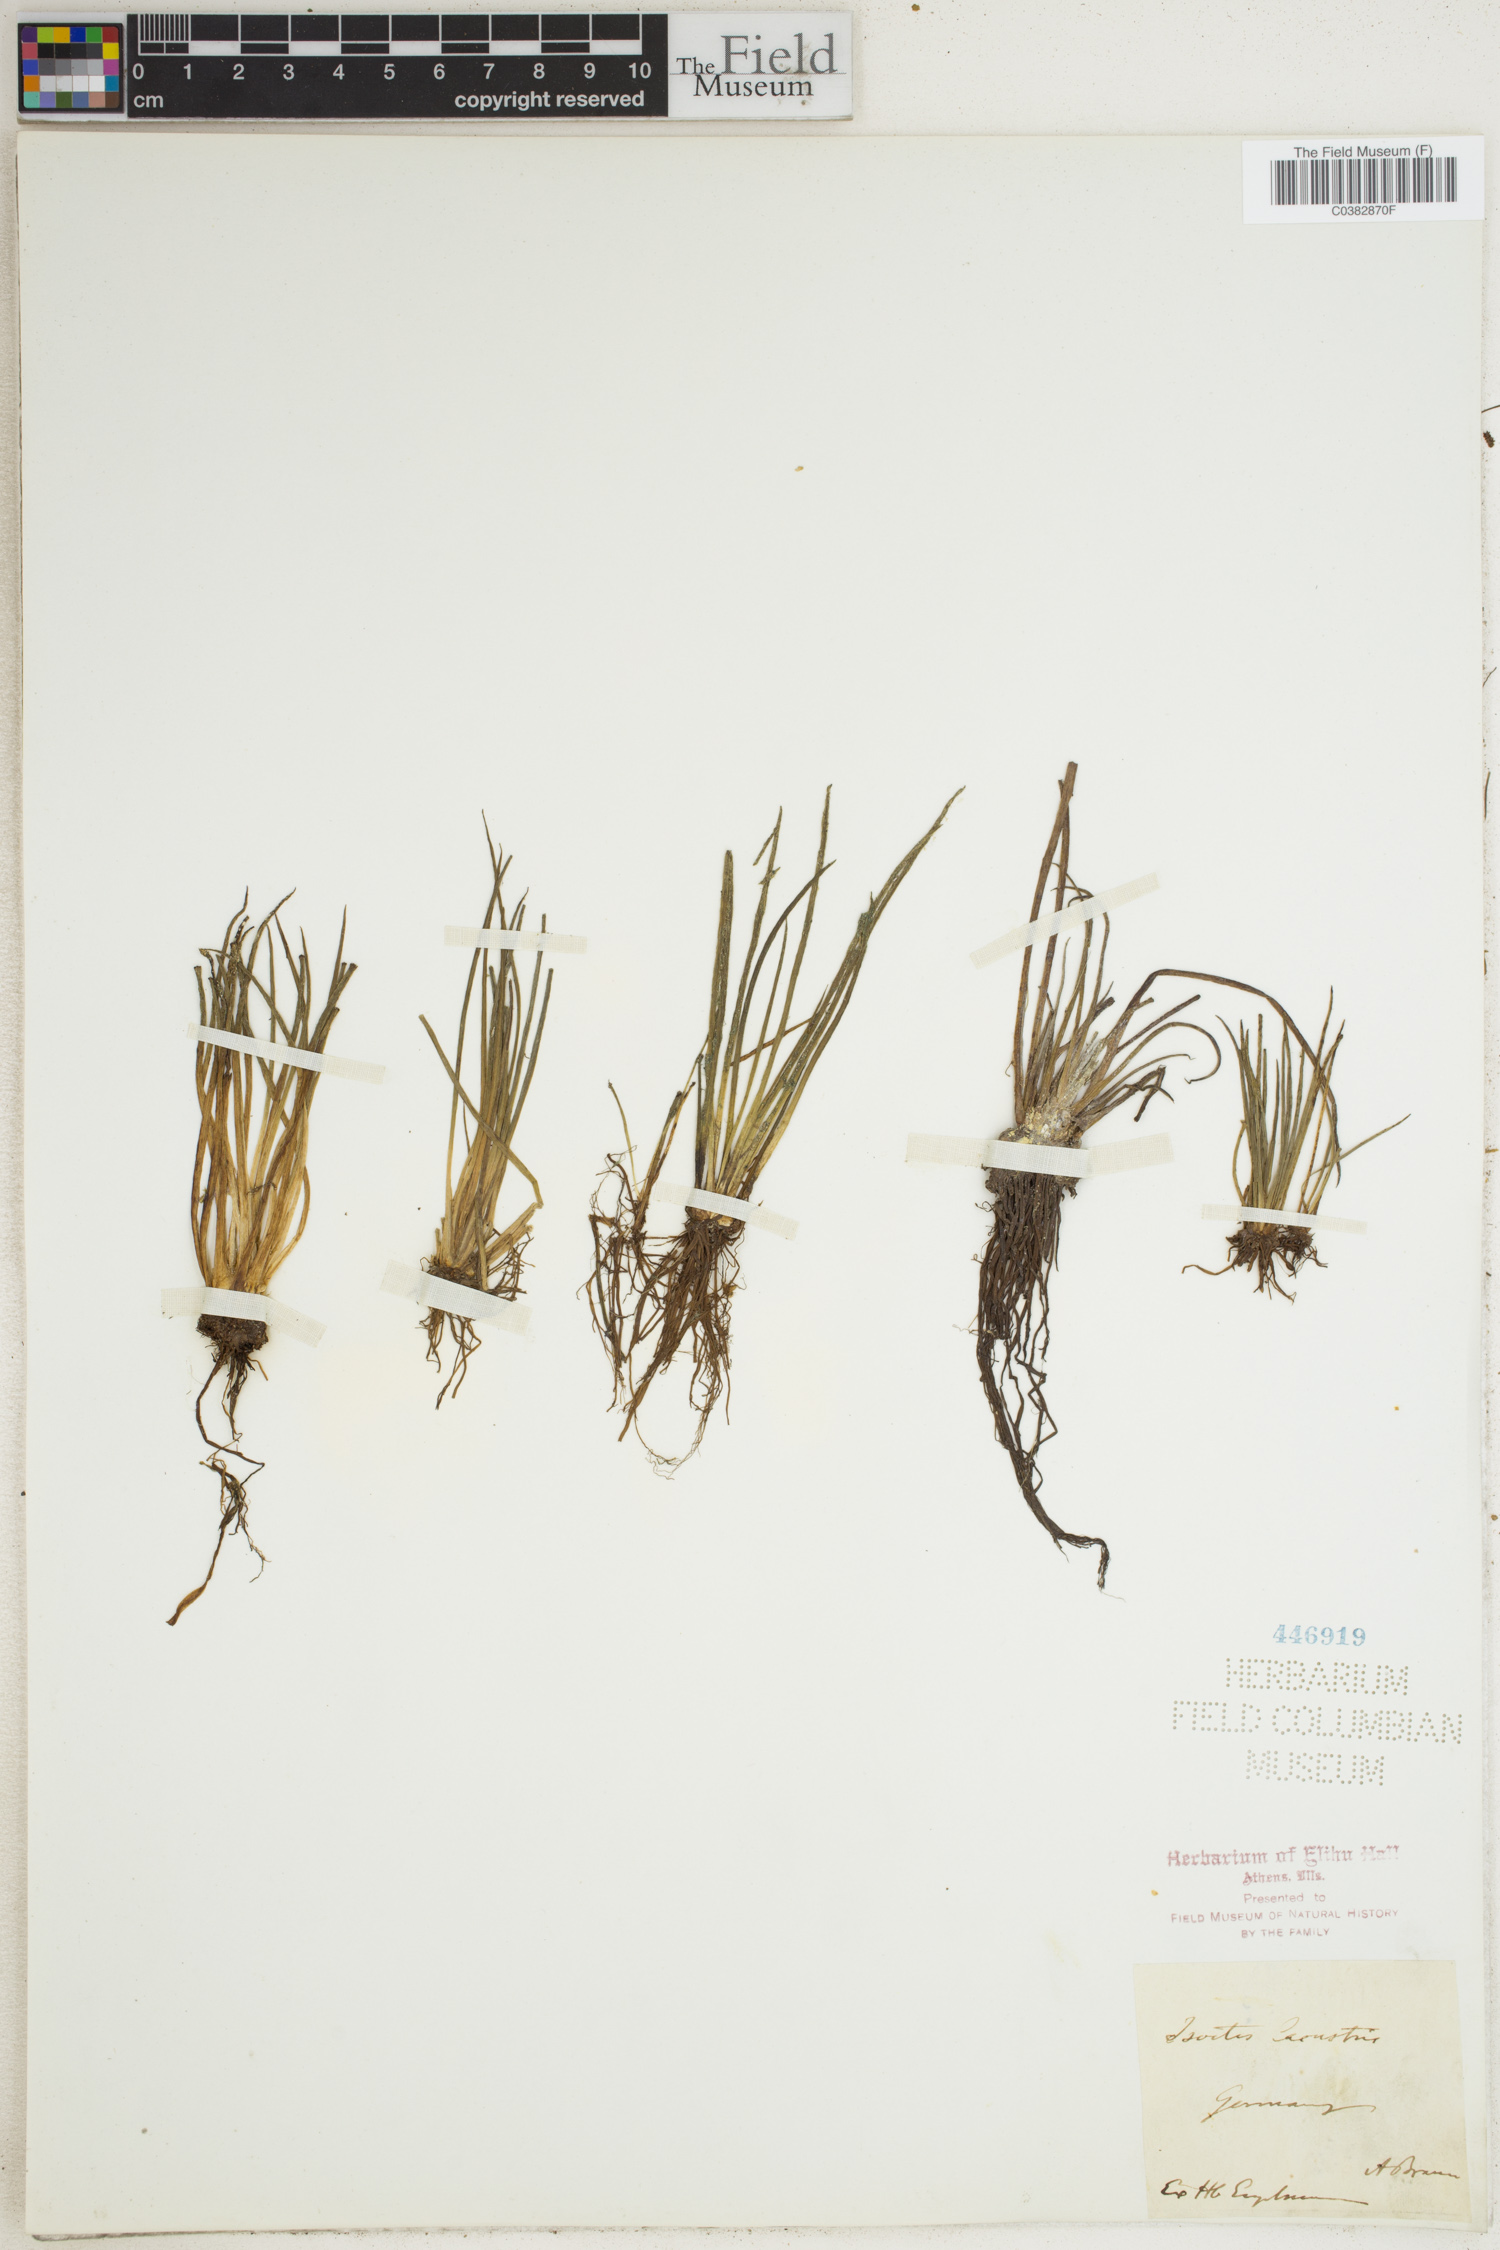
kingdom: Plantae
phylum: Tracheophyta
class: Lycopodiopsida
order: Isoetales
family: Isoetaceae
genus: Isoetes
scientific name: Isoetes lacustris
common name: Common quillwort
